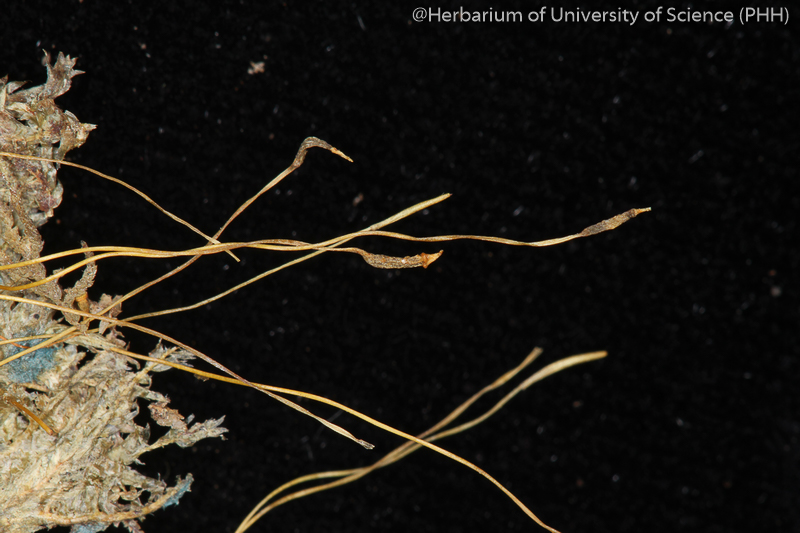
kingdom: Plantae
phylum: Bryophyta
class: Bryopsida
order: Hypnales
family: Taxiphyllaceae
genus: Taxiphyllum
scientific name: Taxiphyllum prostratum
